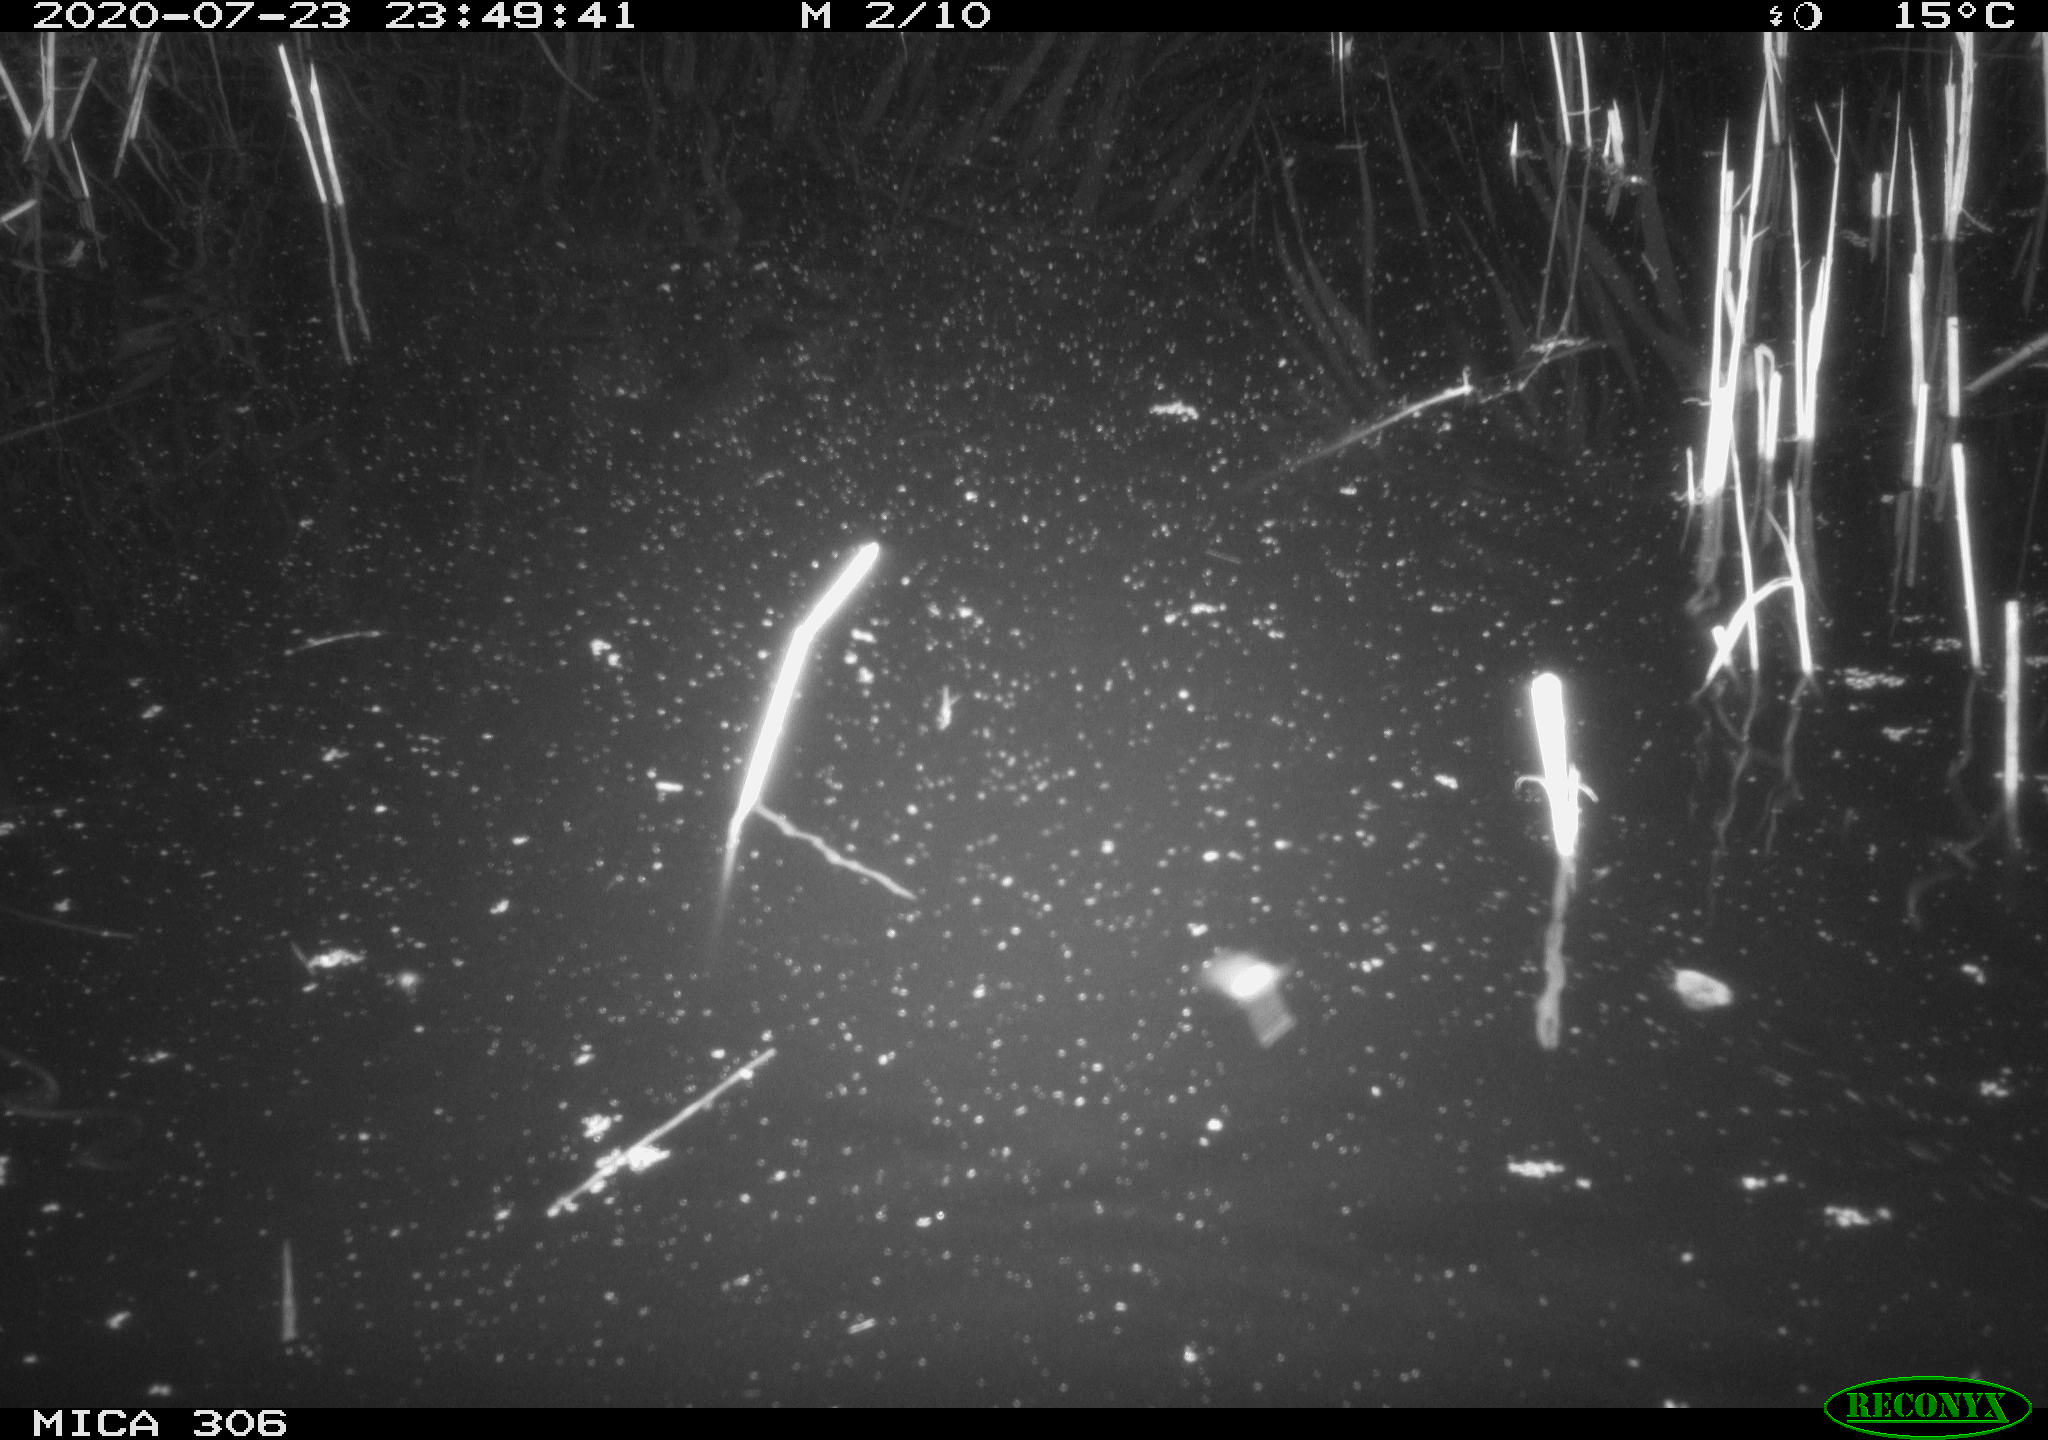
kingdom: Animalia
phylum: Chordata
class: Mammalia
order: Rodentia
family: Muridae
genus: Rattus
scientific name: Rattus norvegicus
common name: Brown rat
